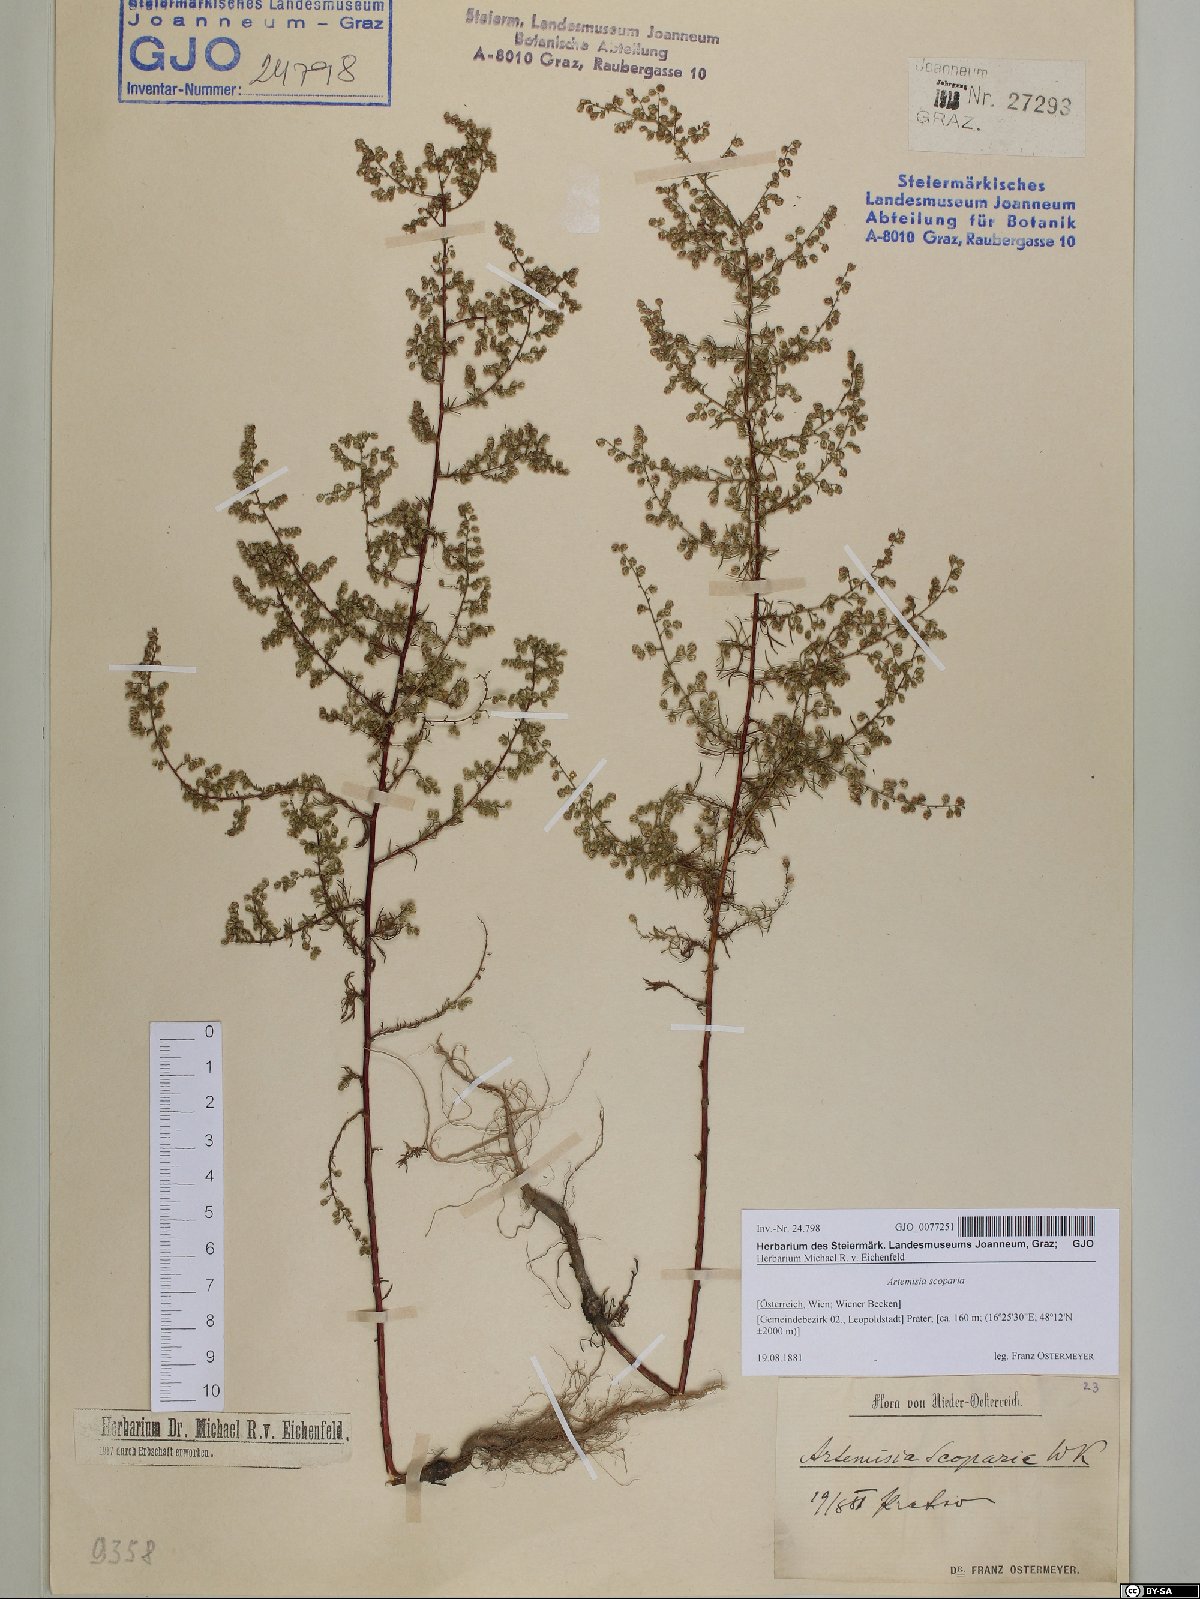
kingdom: Plantae
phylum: Tracheophyta
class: Magnoliopsida
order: Asterales
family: Asteraceae
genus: Artemisia
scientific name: Artemisia scoparia
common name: Redstem wormwood
